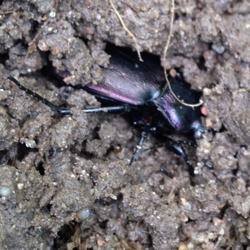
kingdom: Animalia
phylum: Arthropoda
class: Insecta
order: Coleoptera
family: Carabidae
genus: Carabus
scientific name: Carabus nemoralis
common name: Kratløber
